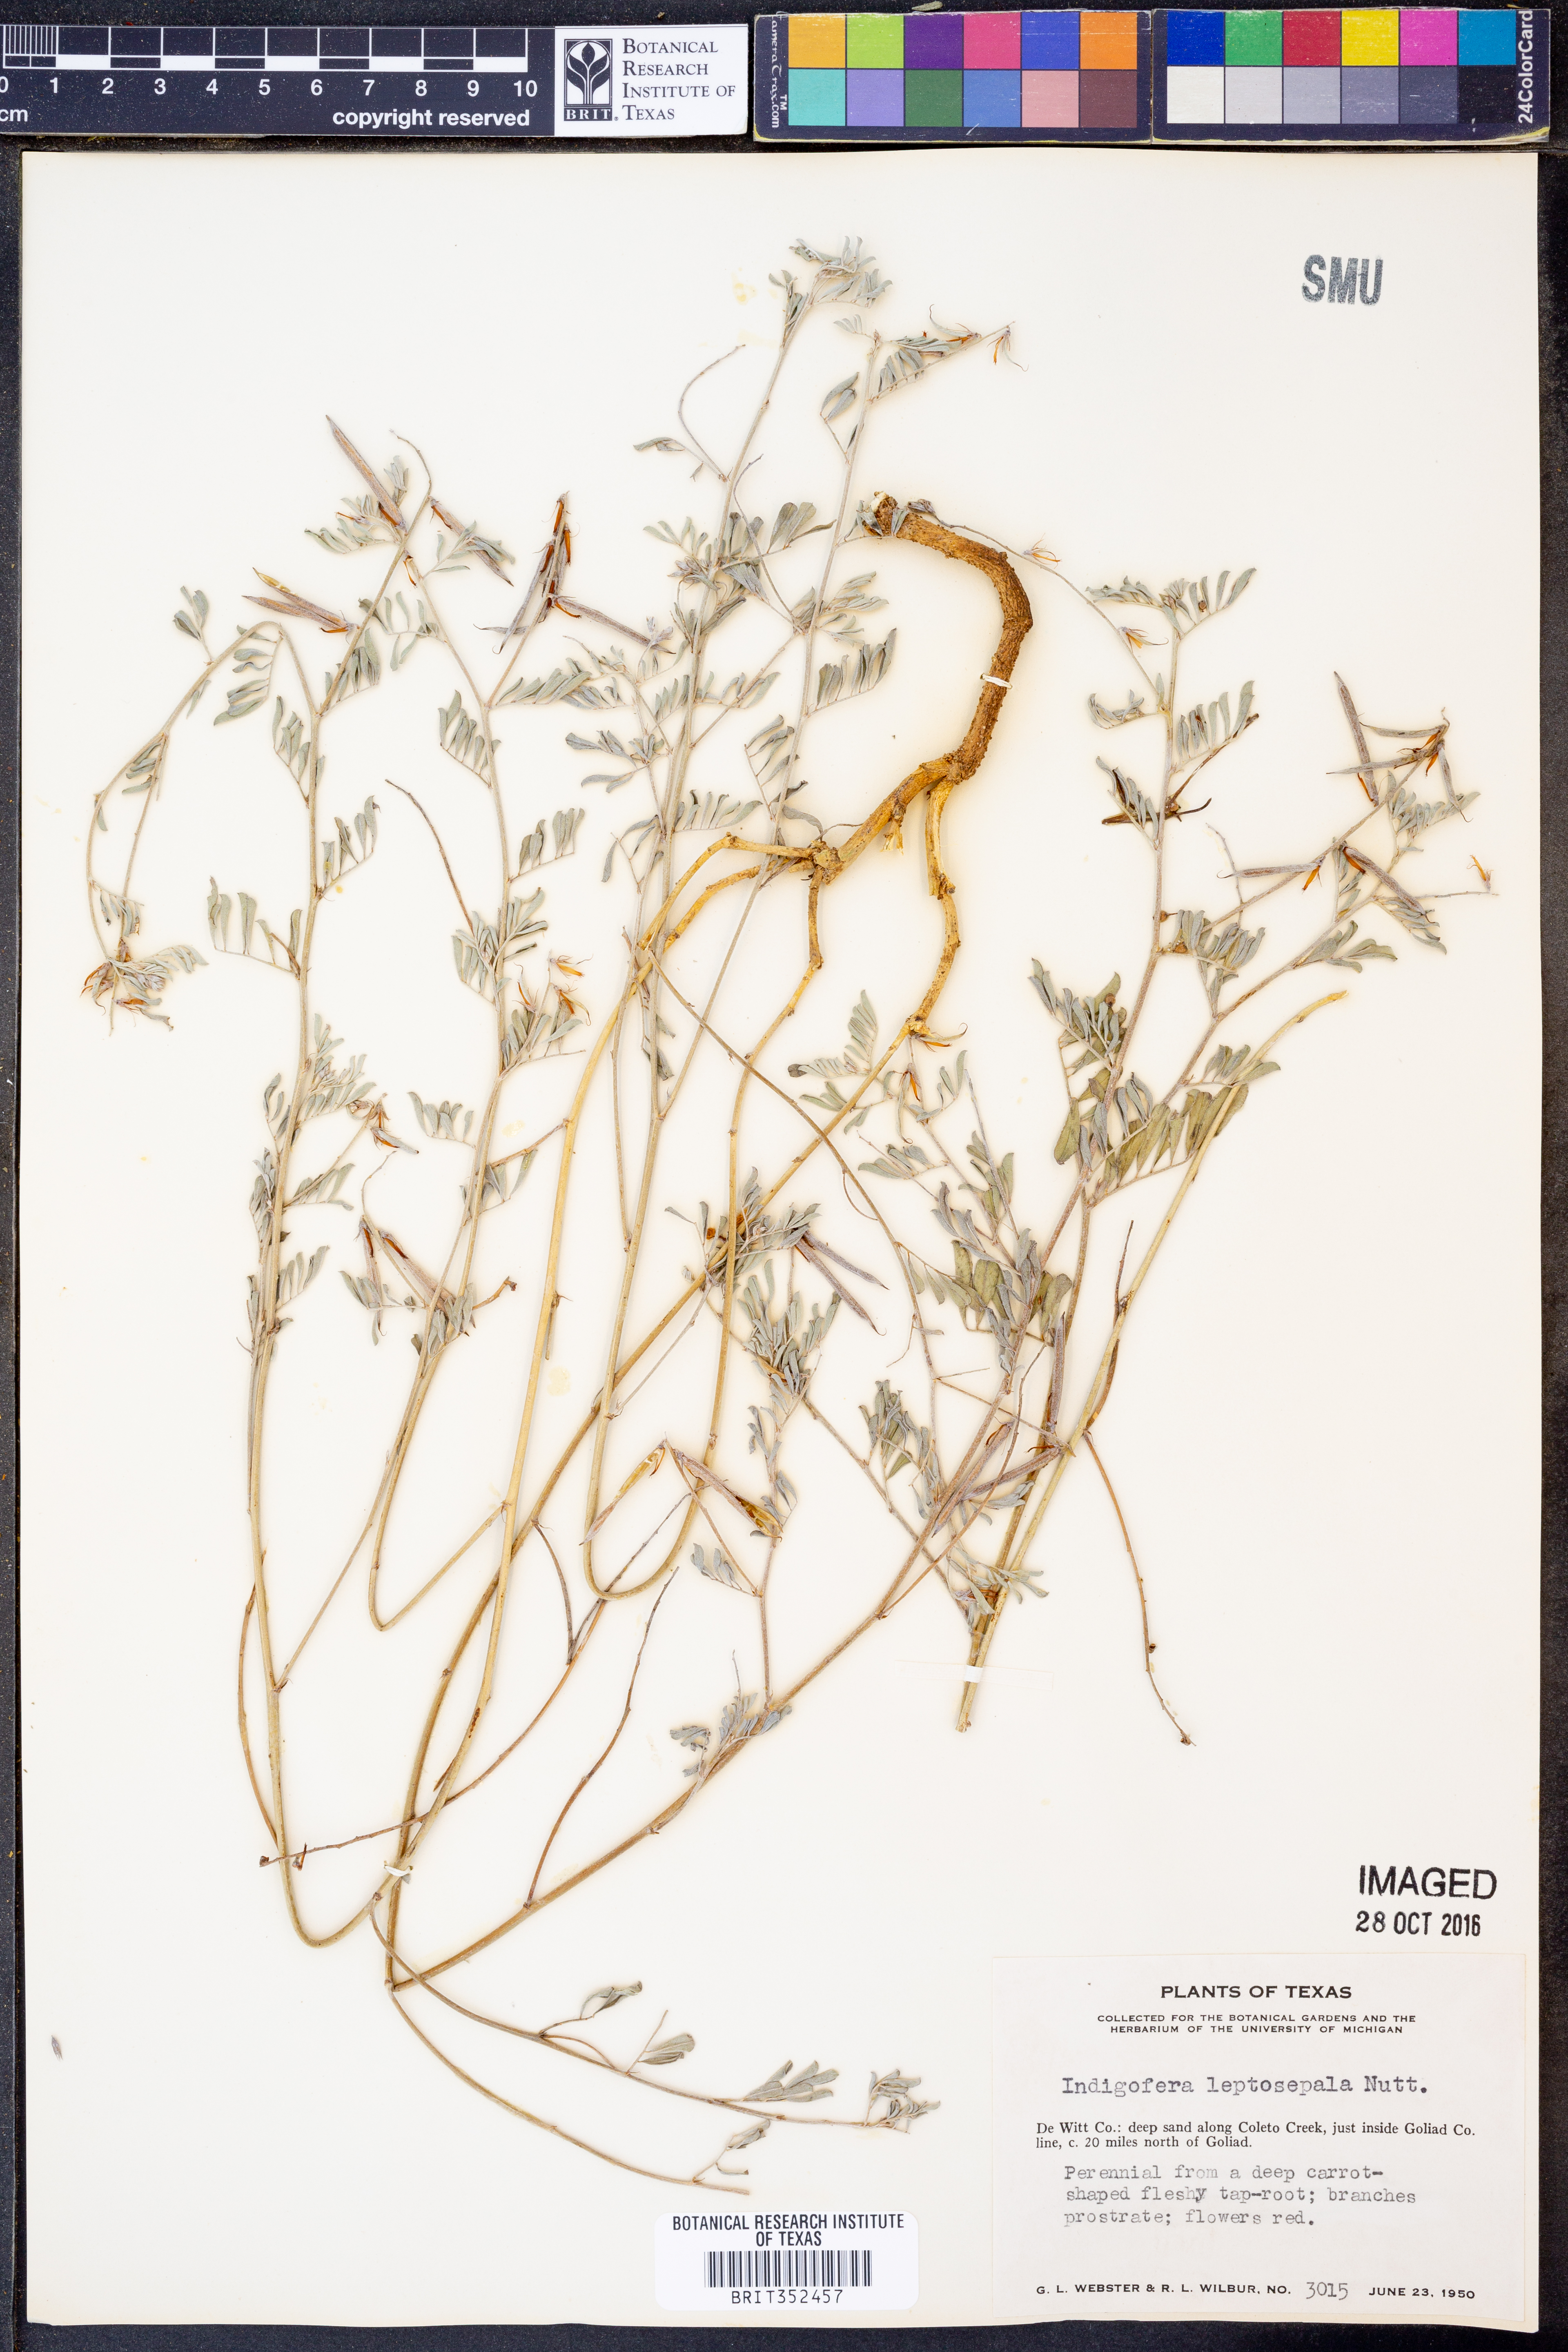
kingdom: Plantae
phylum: Tracheophyta
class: Magnoliopsida
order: Fabales
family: Fabaceae
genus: Indigofera
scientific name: Indigofera argutidens
